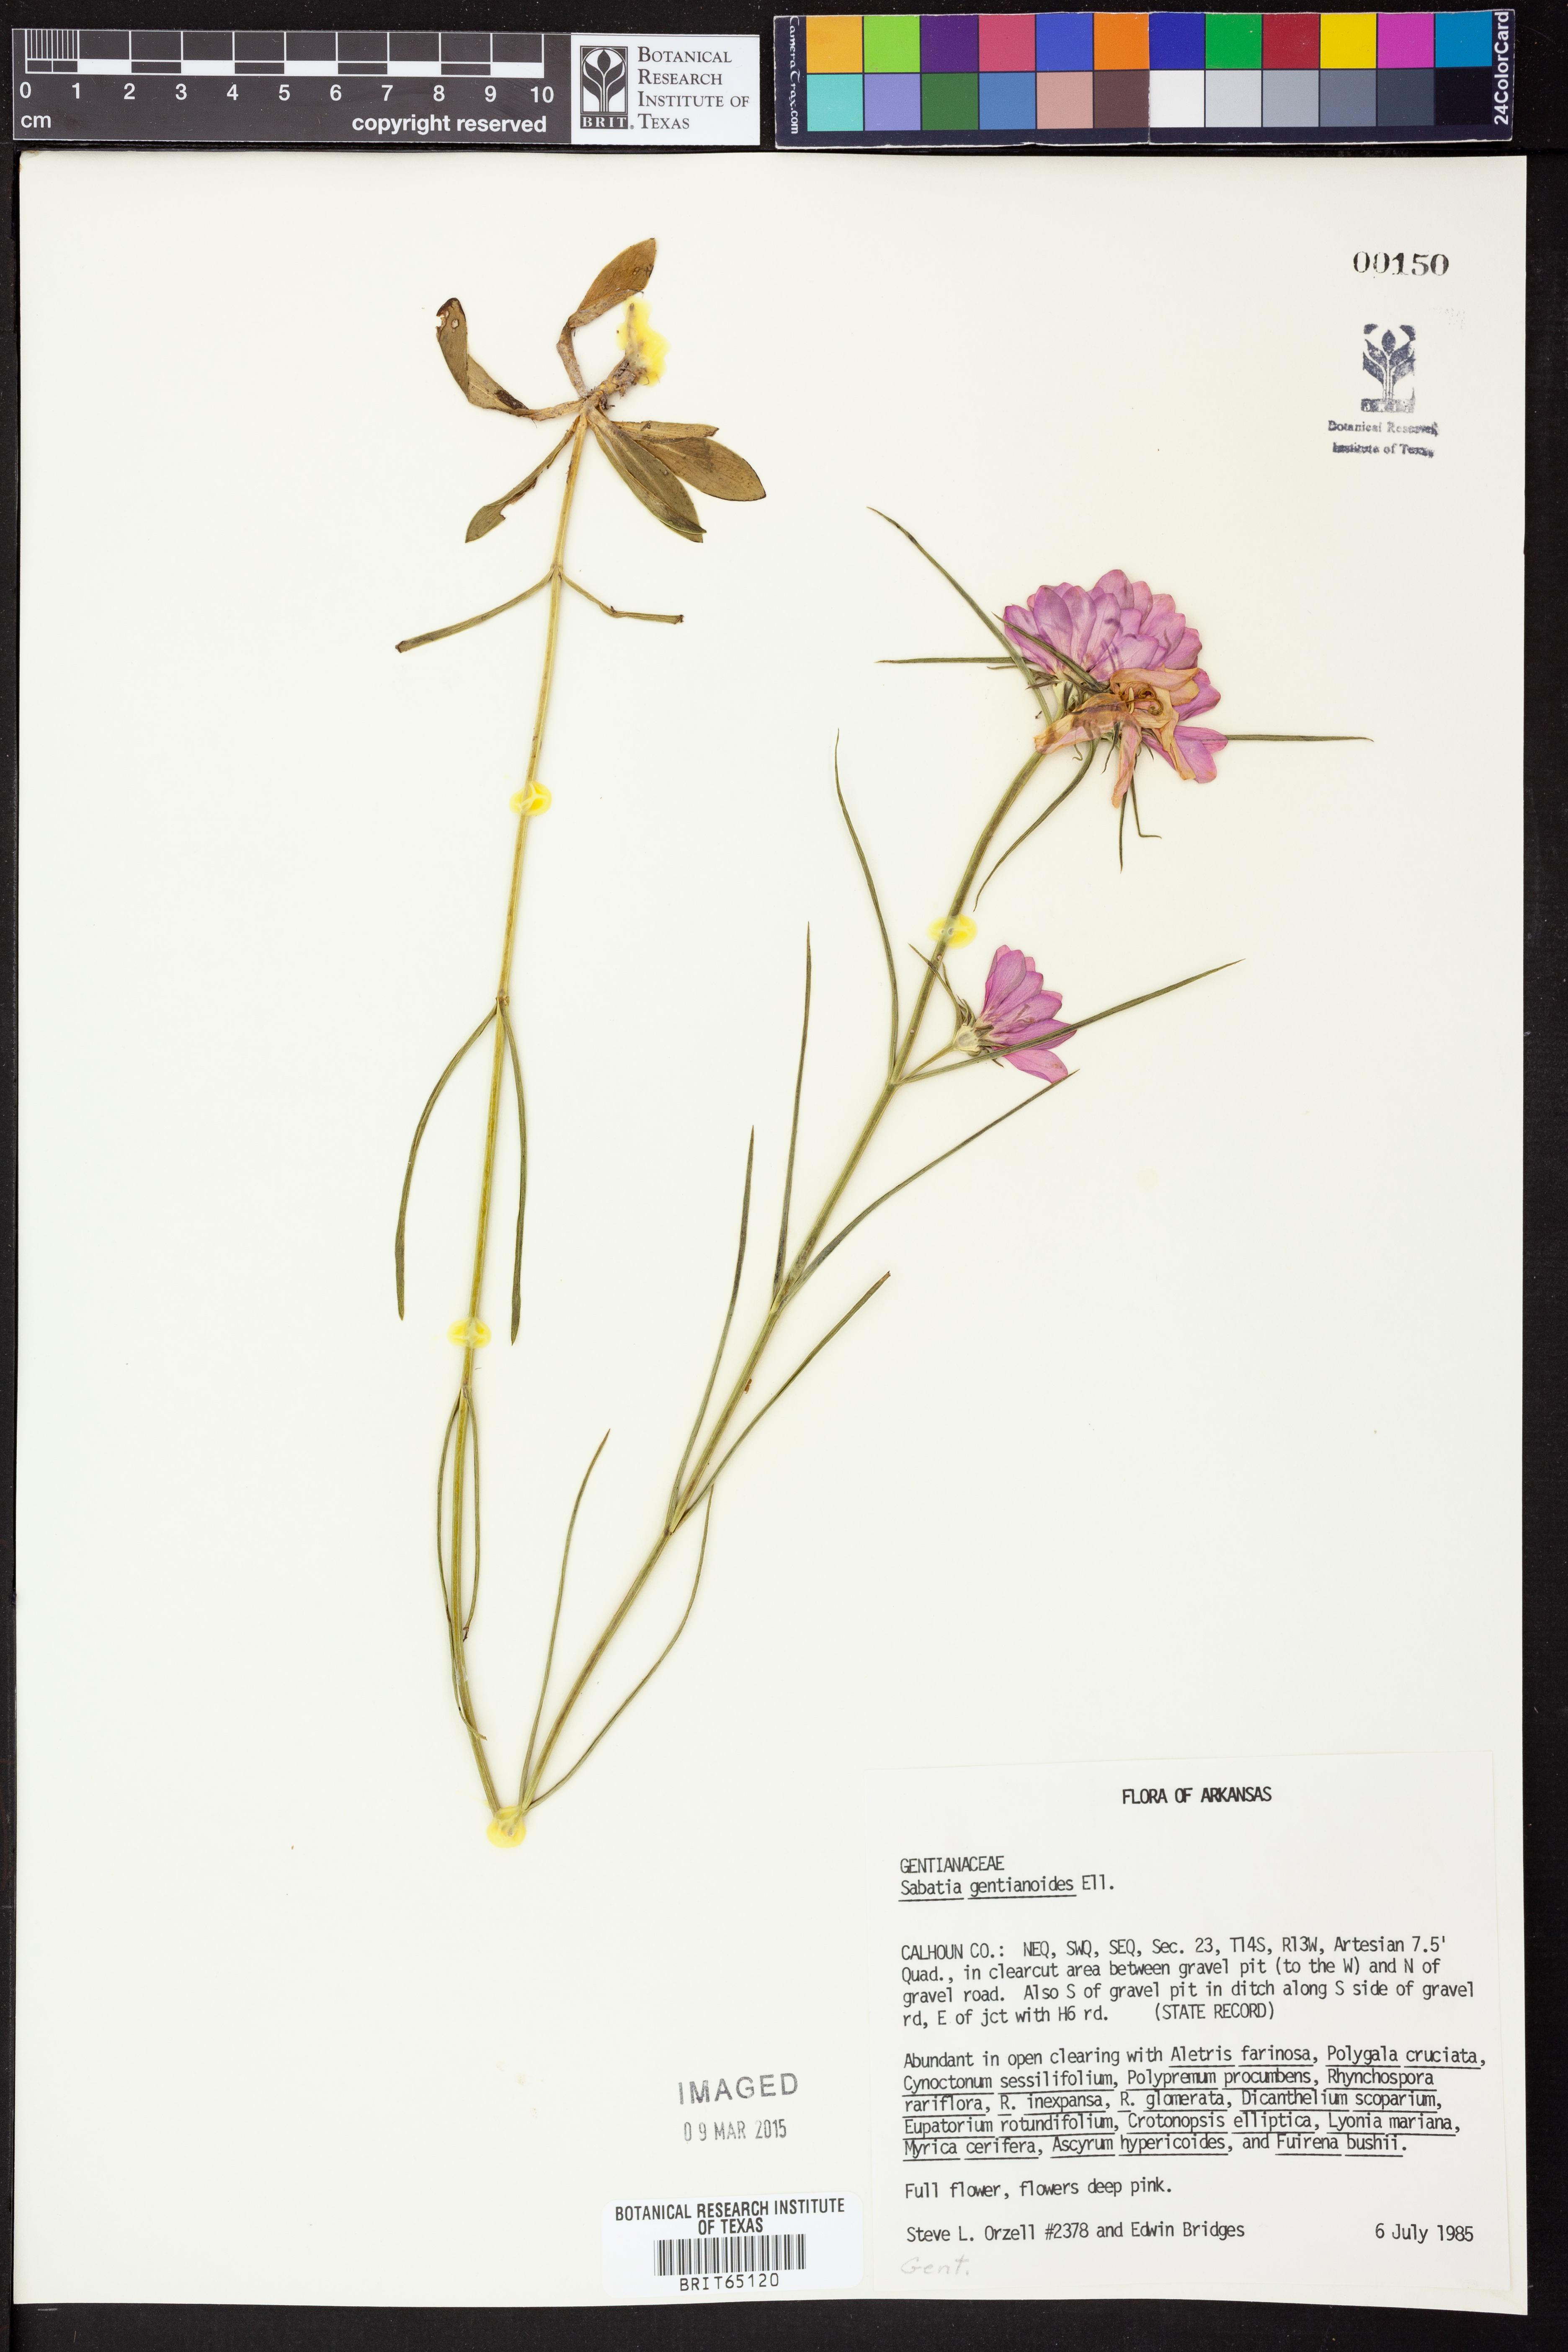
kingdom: Plantae
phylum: Tracheophyta
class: Magnoliopsida
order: Gentianales
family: Gentianaceae
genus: Sabatia
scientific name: Sabatia gentianoides
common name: Pinewoods rose-gentian
